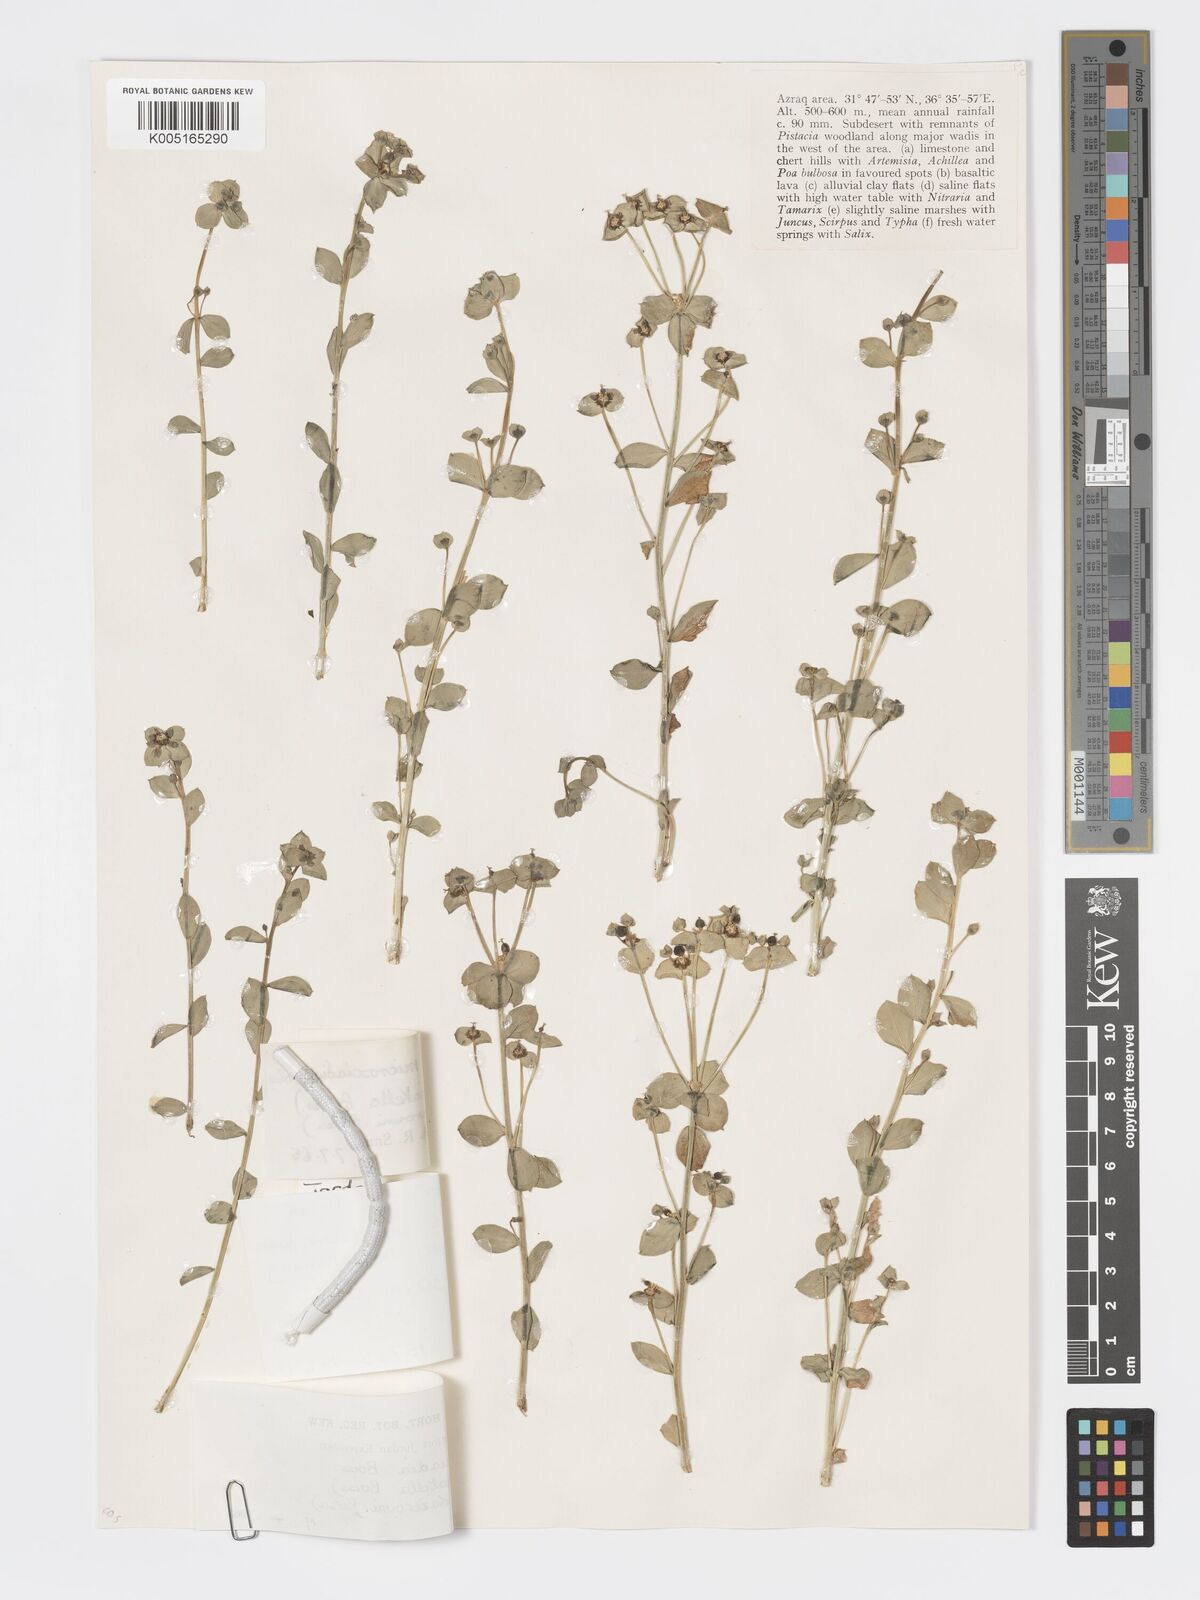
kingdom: Plantae
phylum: Tracheophyta
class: Magnoliopsida
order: Malpighiales
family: Euphorbiaceae
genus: Euphorbia
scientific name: Euphorbia
